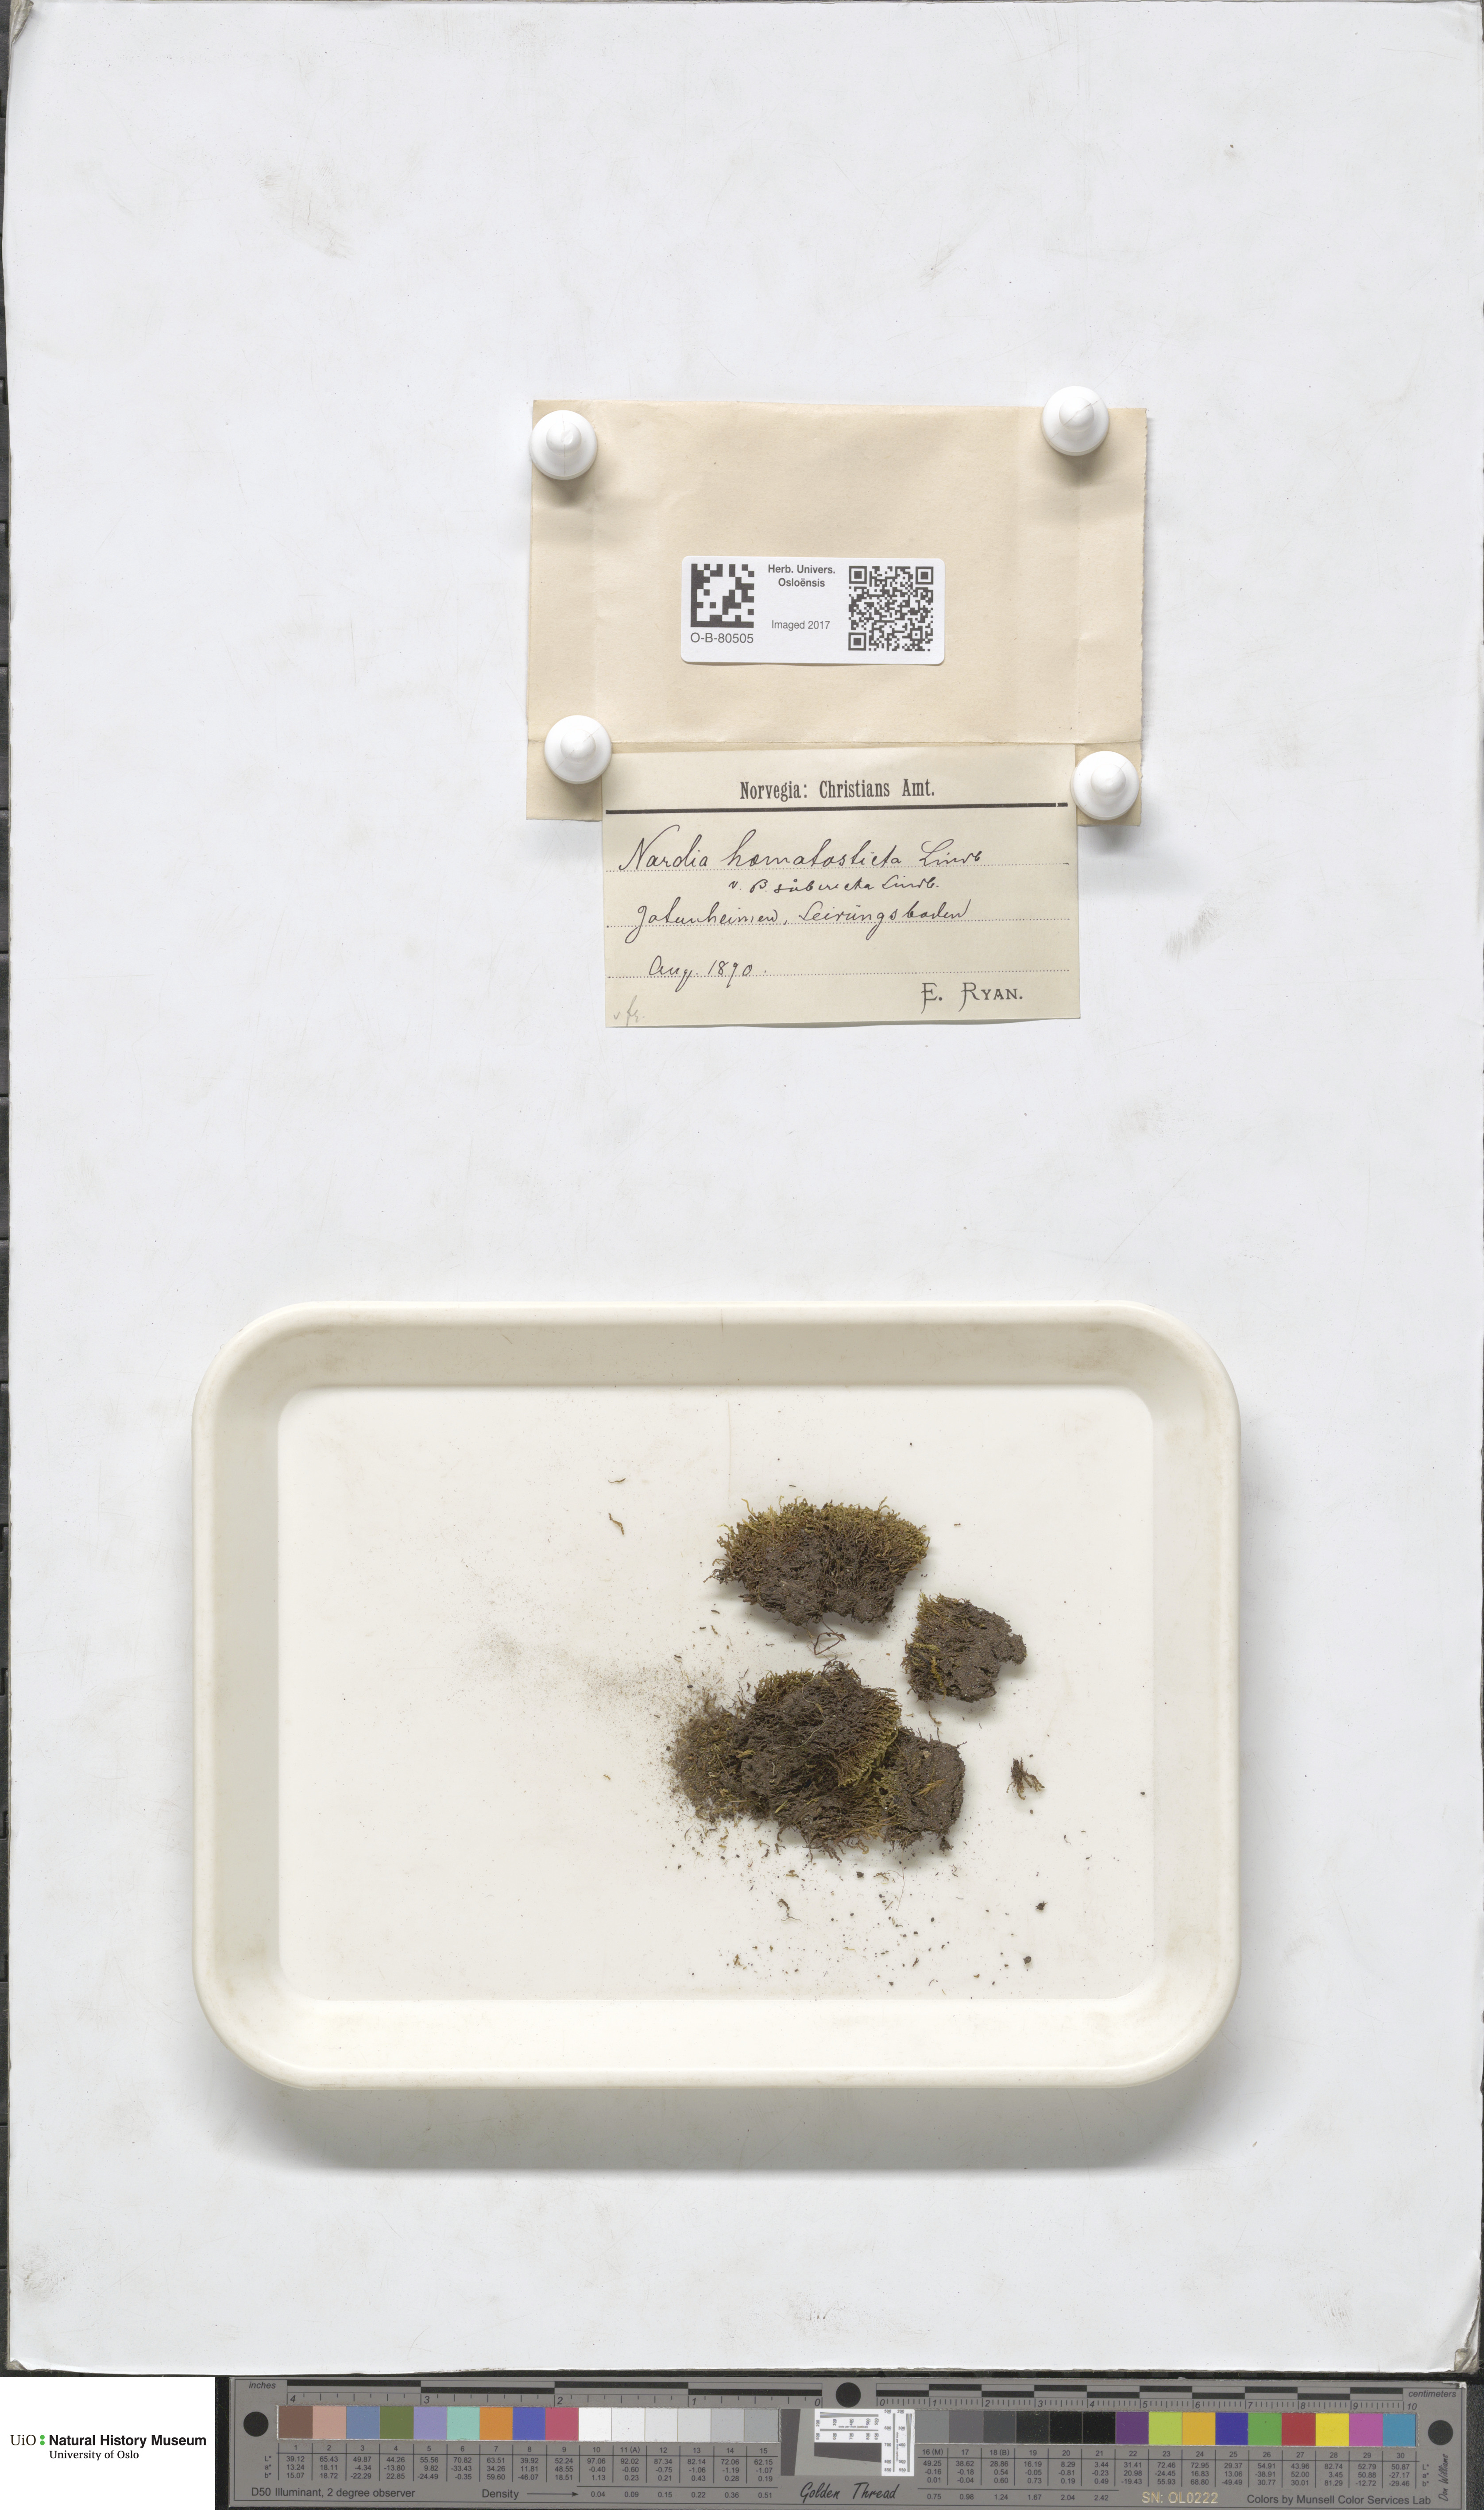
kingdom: Plantae
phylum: Marchantiophyta
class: Jungermanniopsida
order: Jungermanniales
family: Gymnomitriaceae
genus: Nardia
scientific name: Nardia geoscyphus
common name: Earth-cup flapwort
